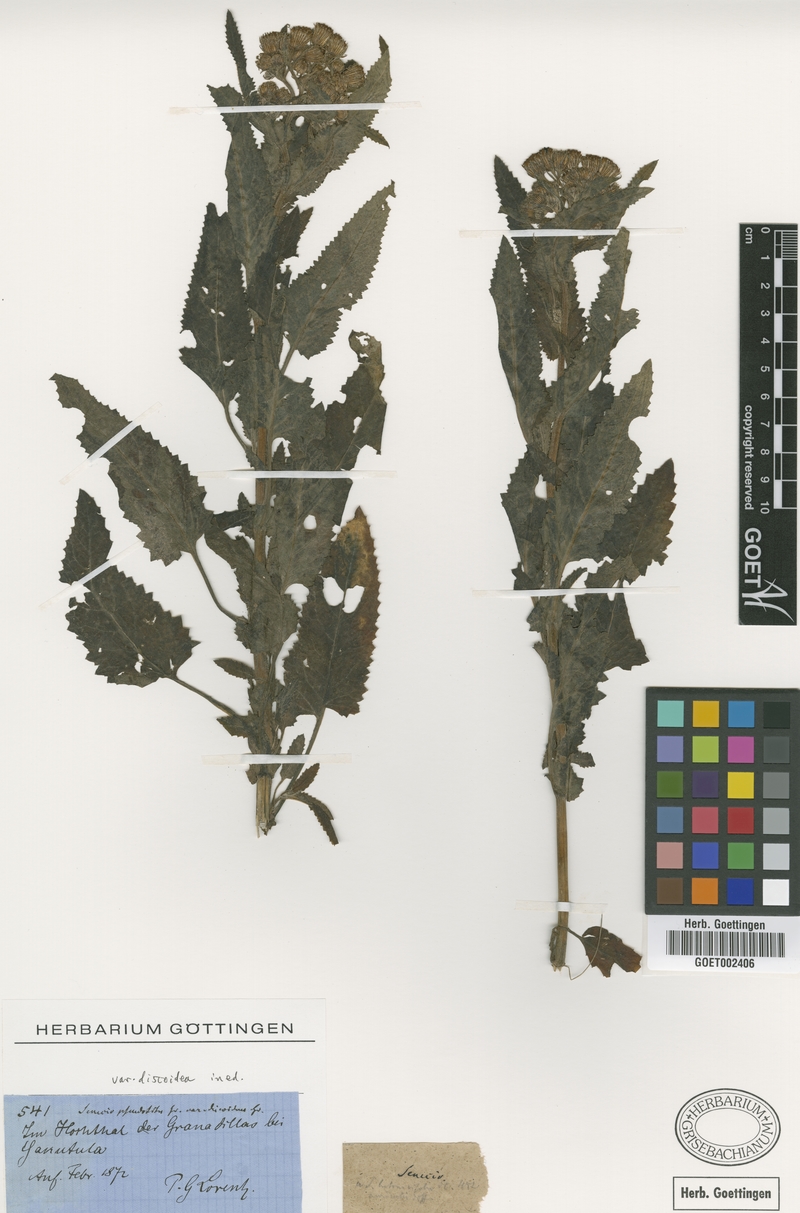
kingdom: Plantae
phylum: Tracheophyta
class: Magnoliopsida
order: Asterales
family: Asteraceae
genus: Senecio
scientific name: Senecio pseudotites
